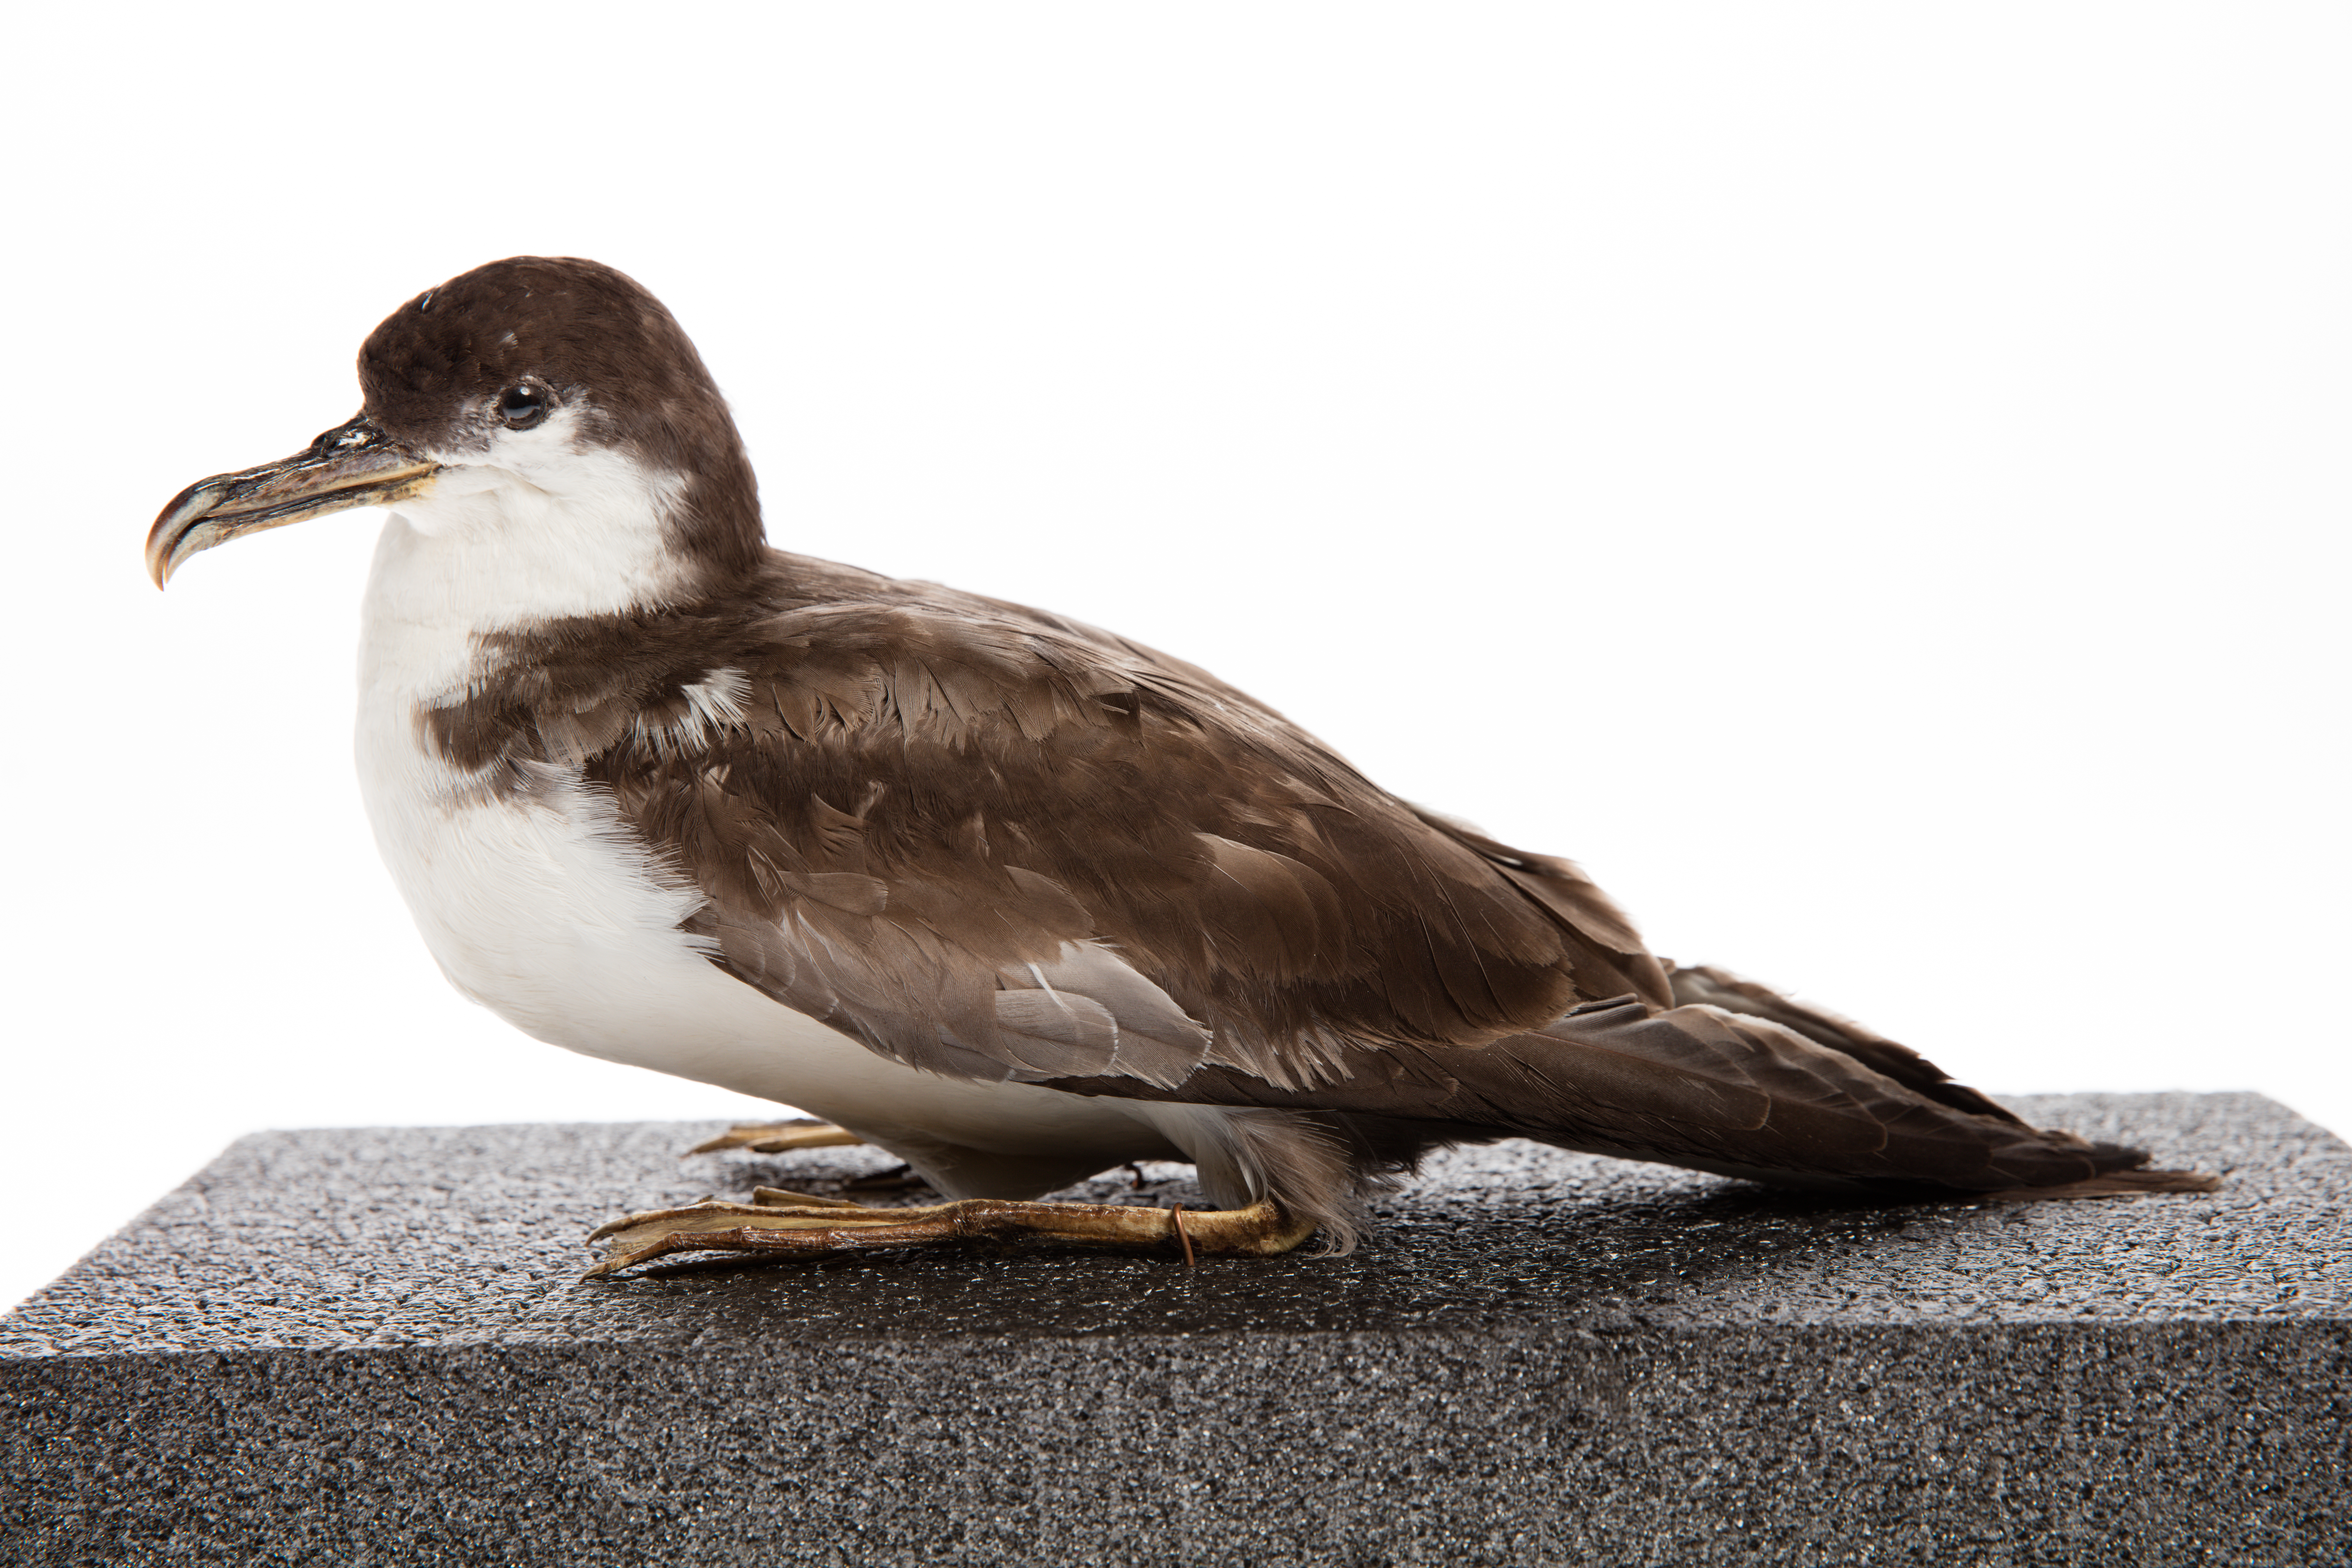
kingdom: Animalia
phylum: Chordata
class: Aves
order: Procellariiformes
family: Procellariidae
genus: Ardenna
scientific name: Ardenna
